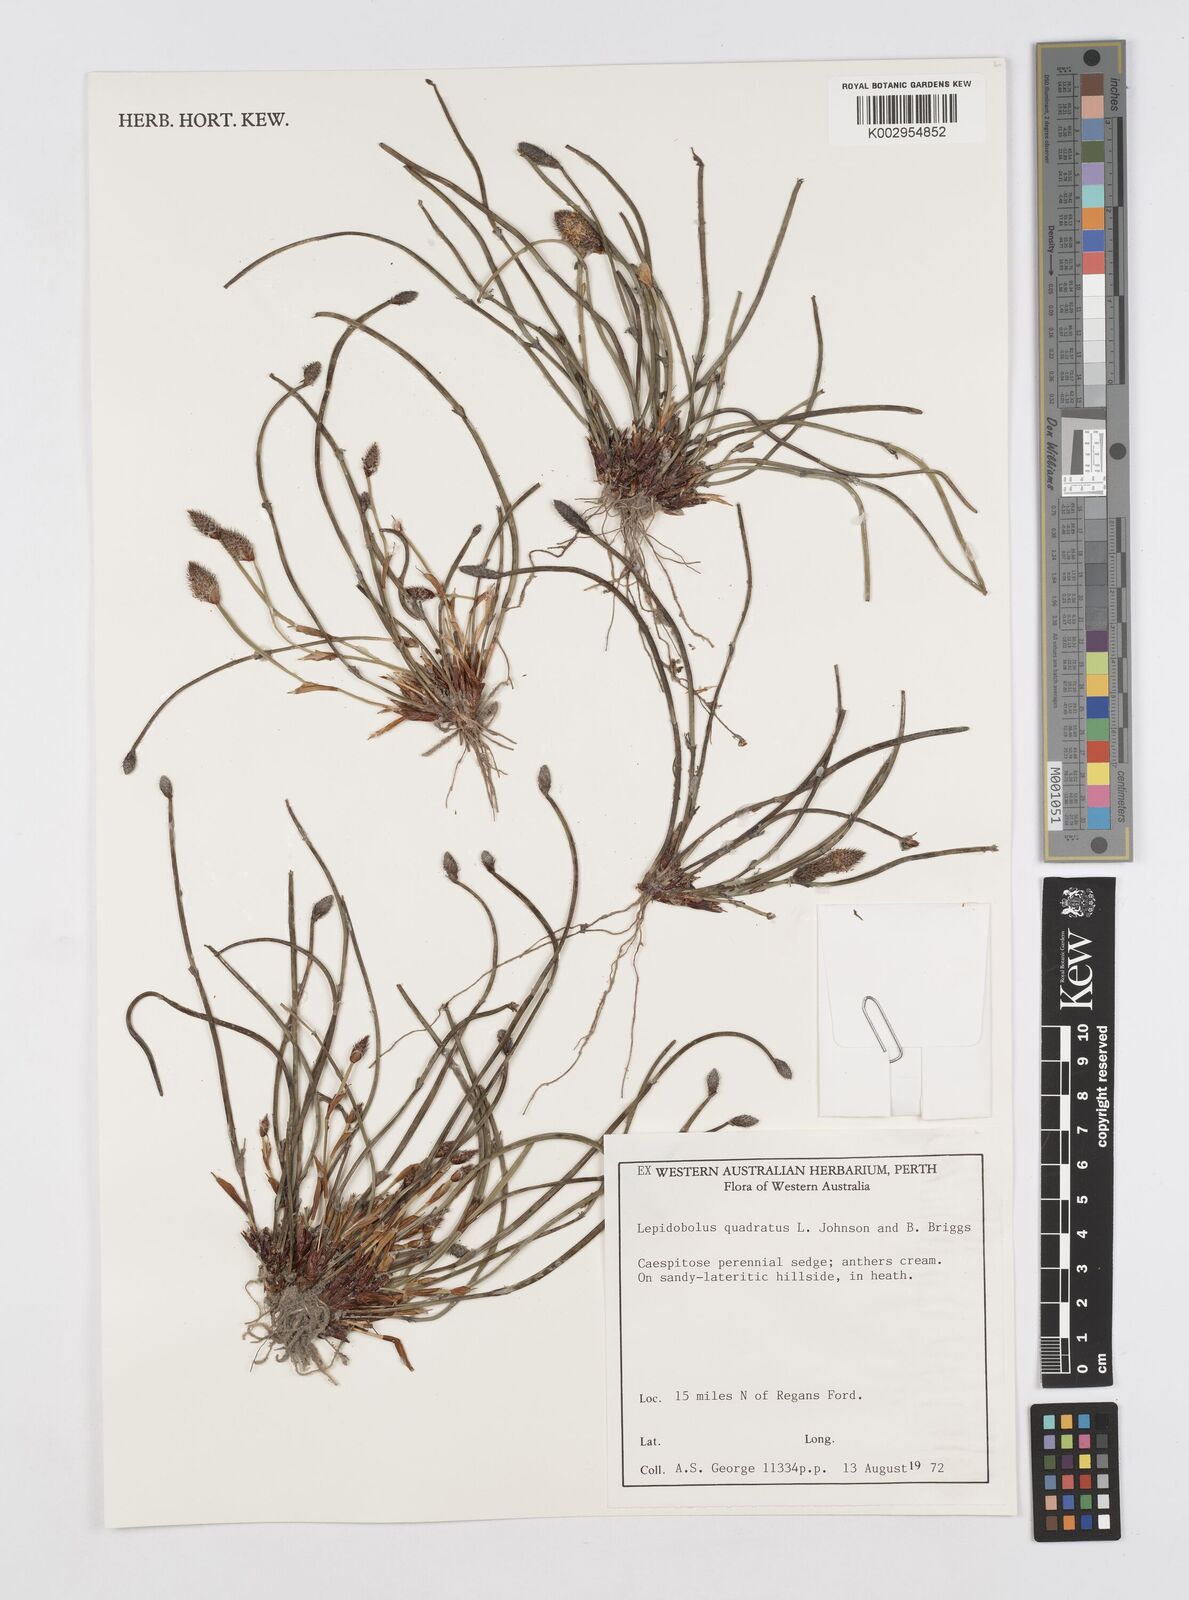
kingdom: Plantae
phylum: Tracheophyta
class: Liliopsida
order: Poales
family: Restionaceae
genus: Lepidobolus
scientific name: Lepidobolus quadratus
